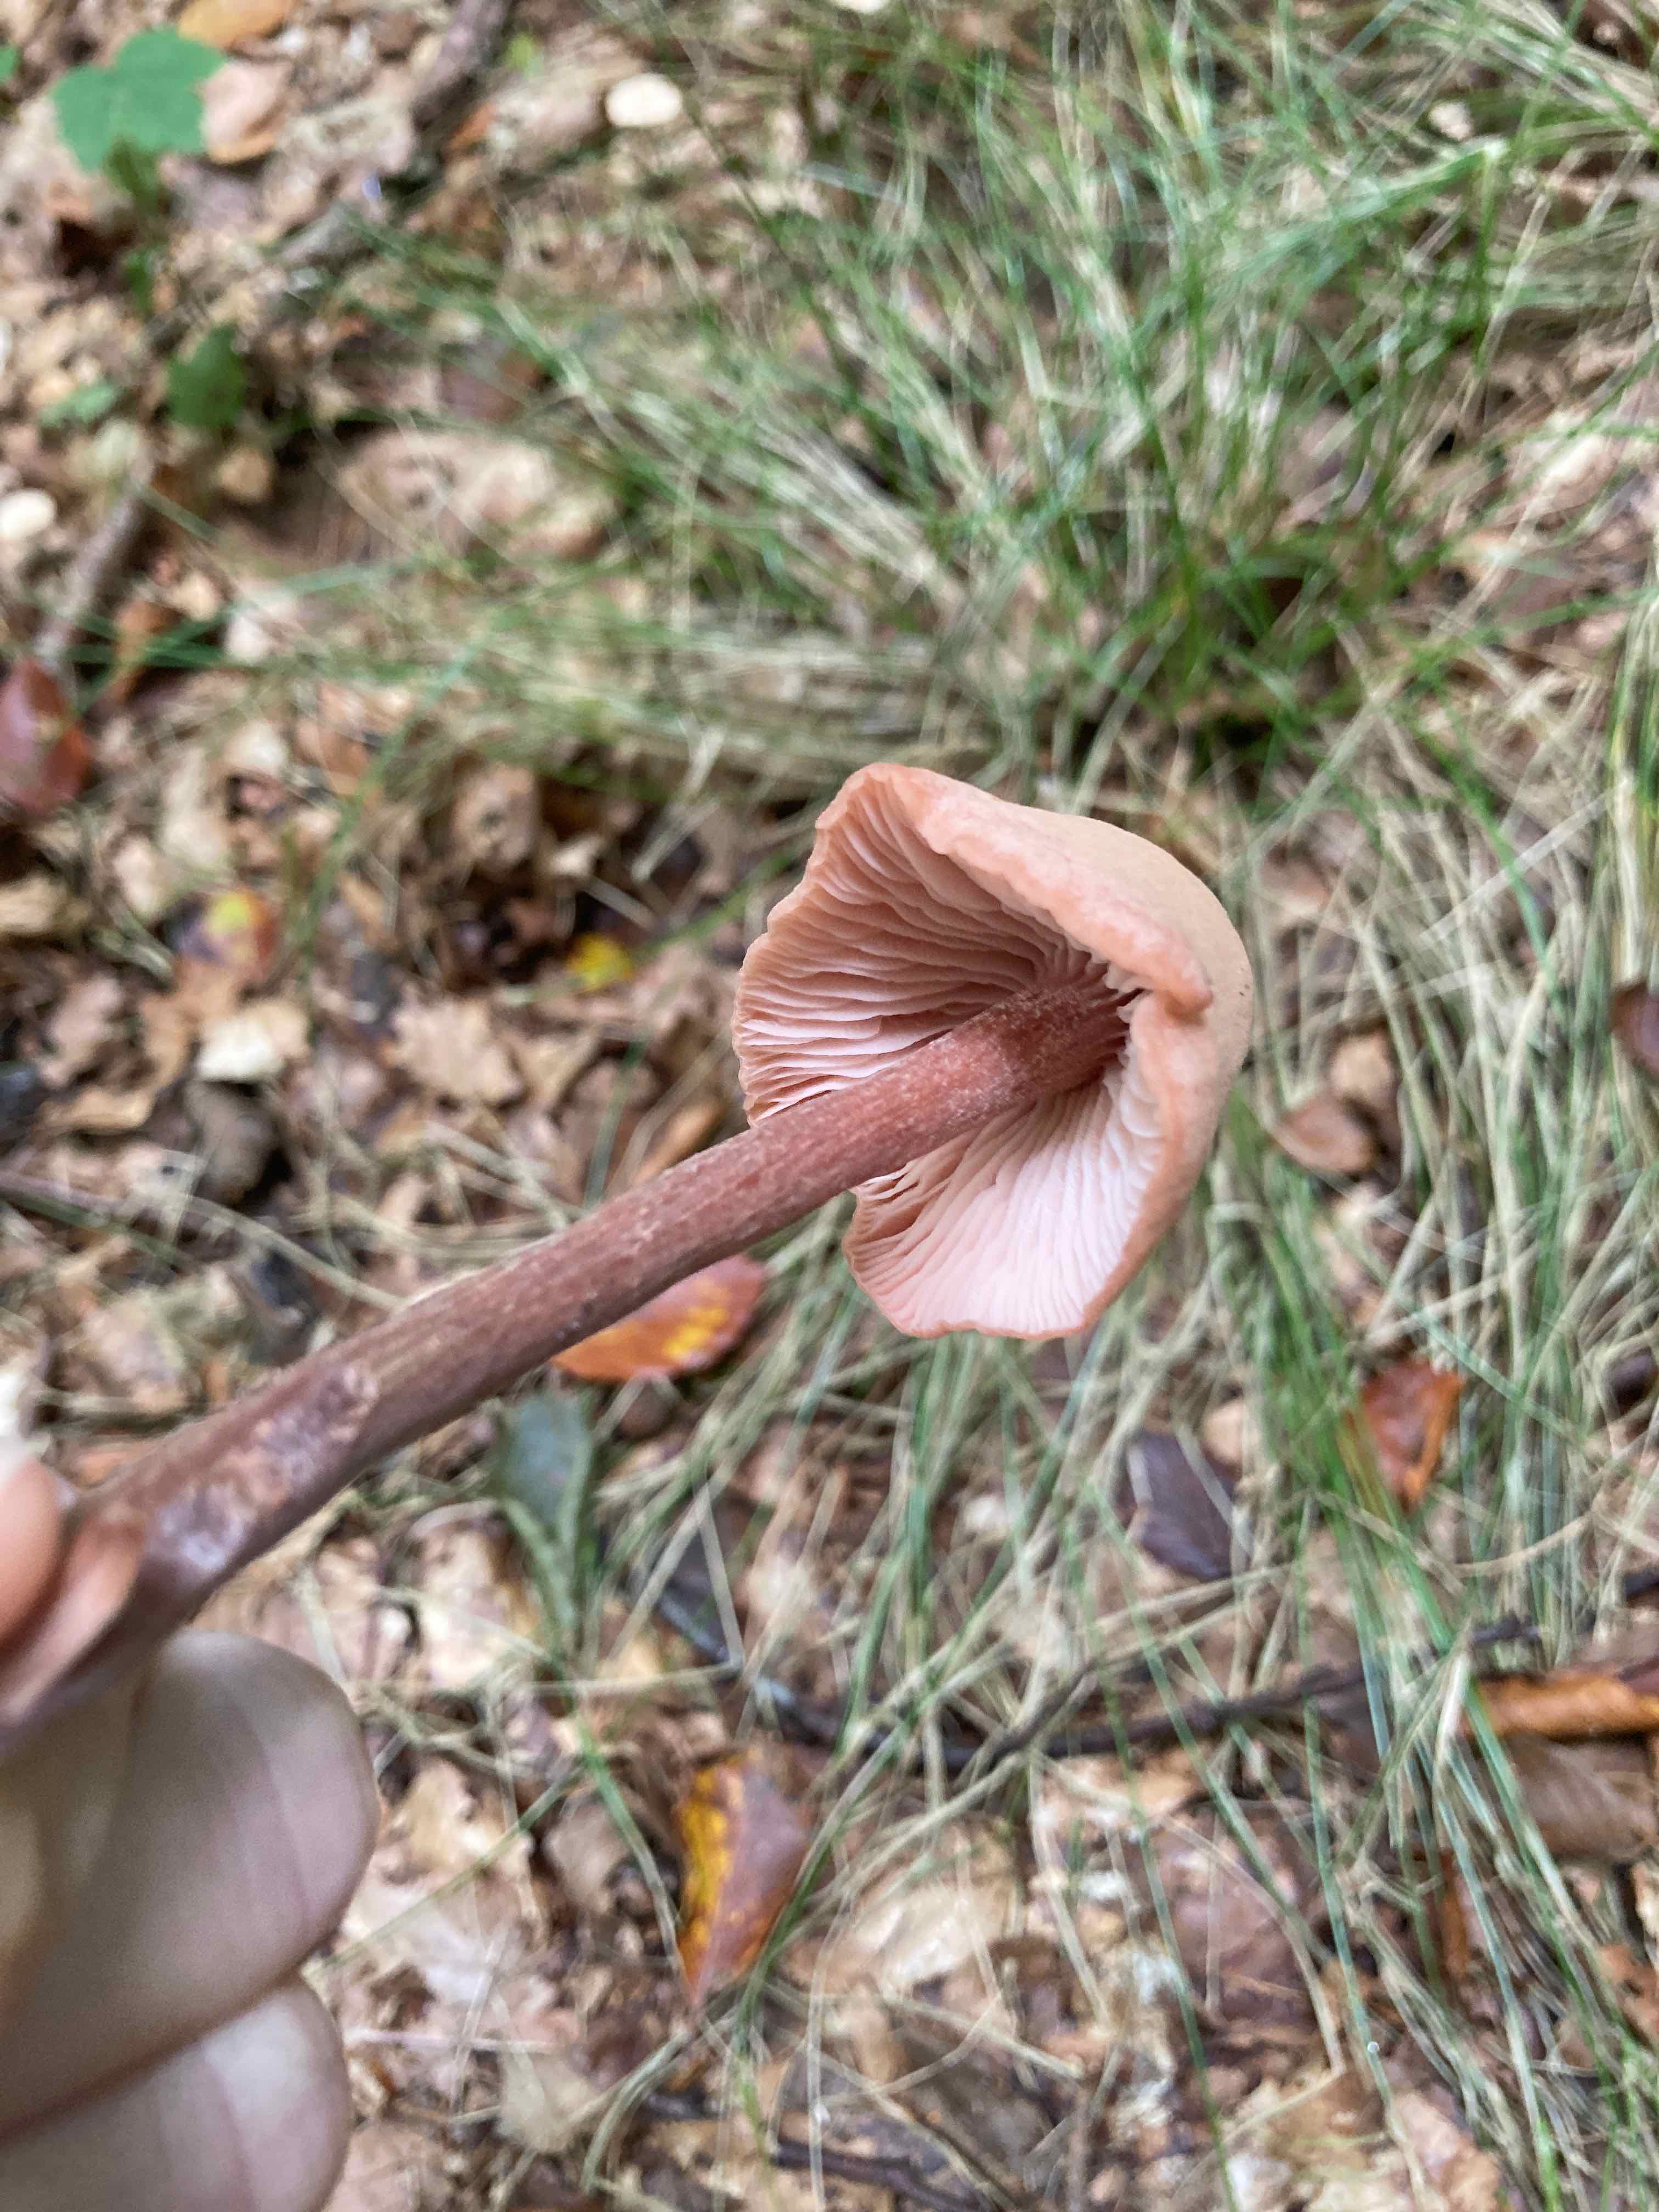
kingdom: Fungi
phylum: Basidiomycota
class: Agaricomycetes
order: Agaricales
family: Hydnangiaceae
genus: Laccaria
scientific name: Laccaria proxima
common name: stor ametysthat
